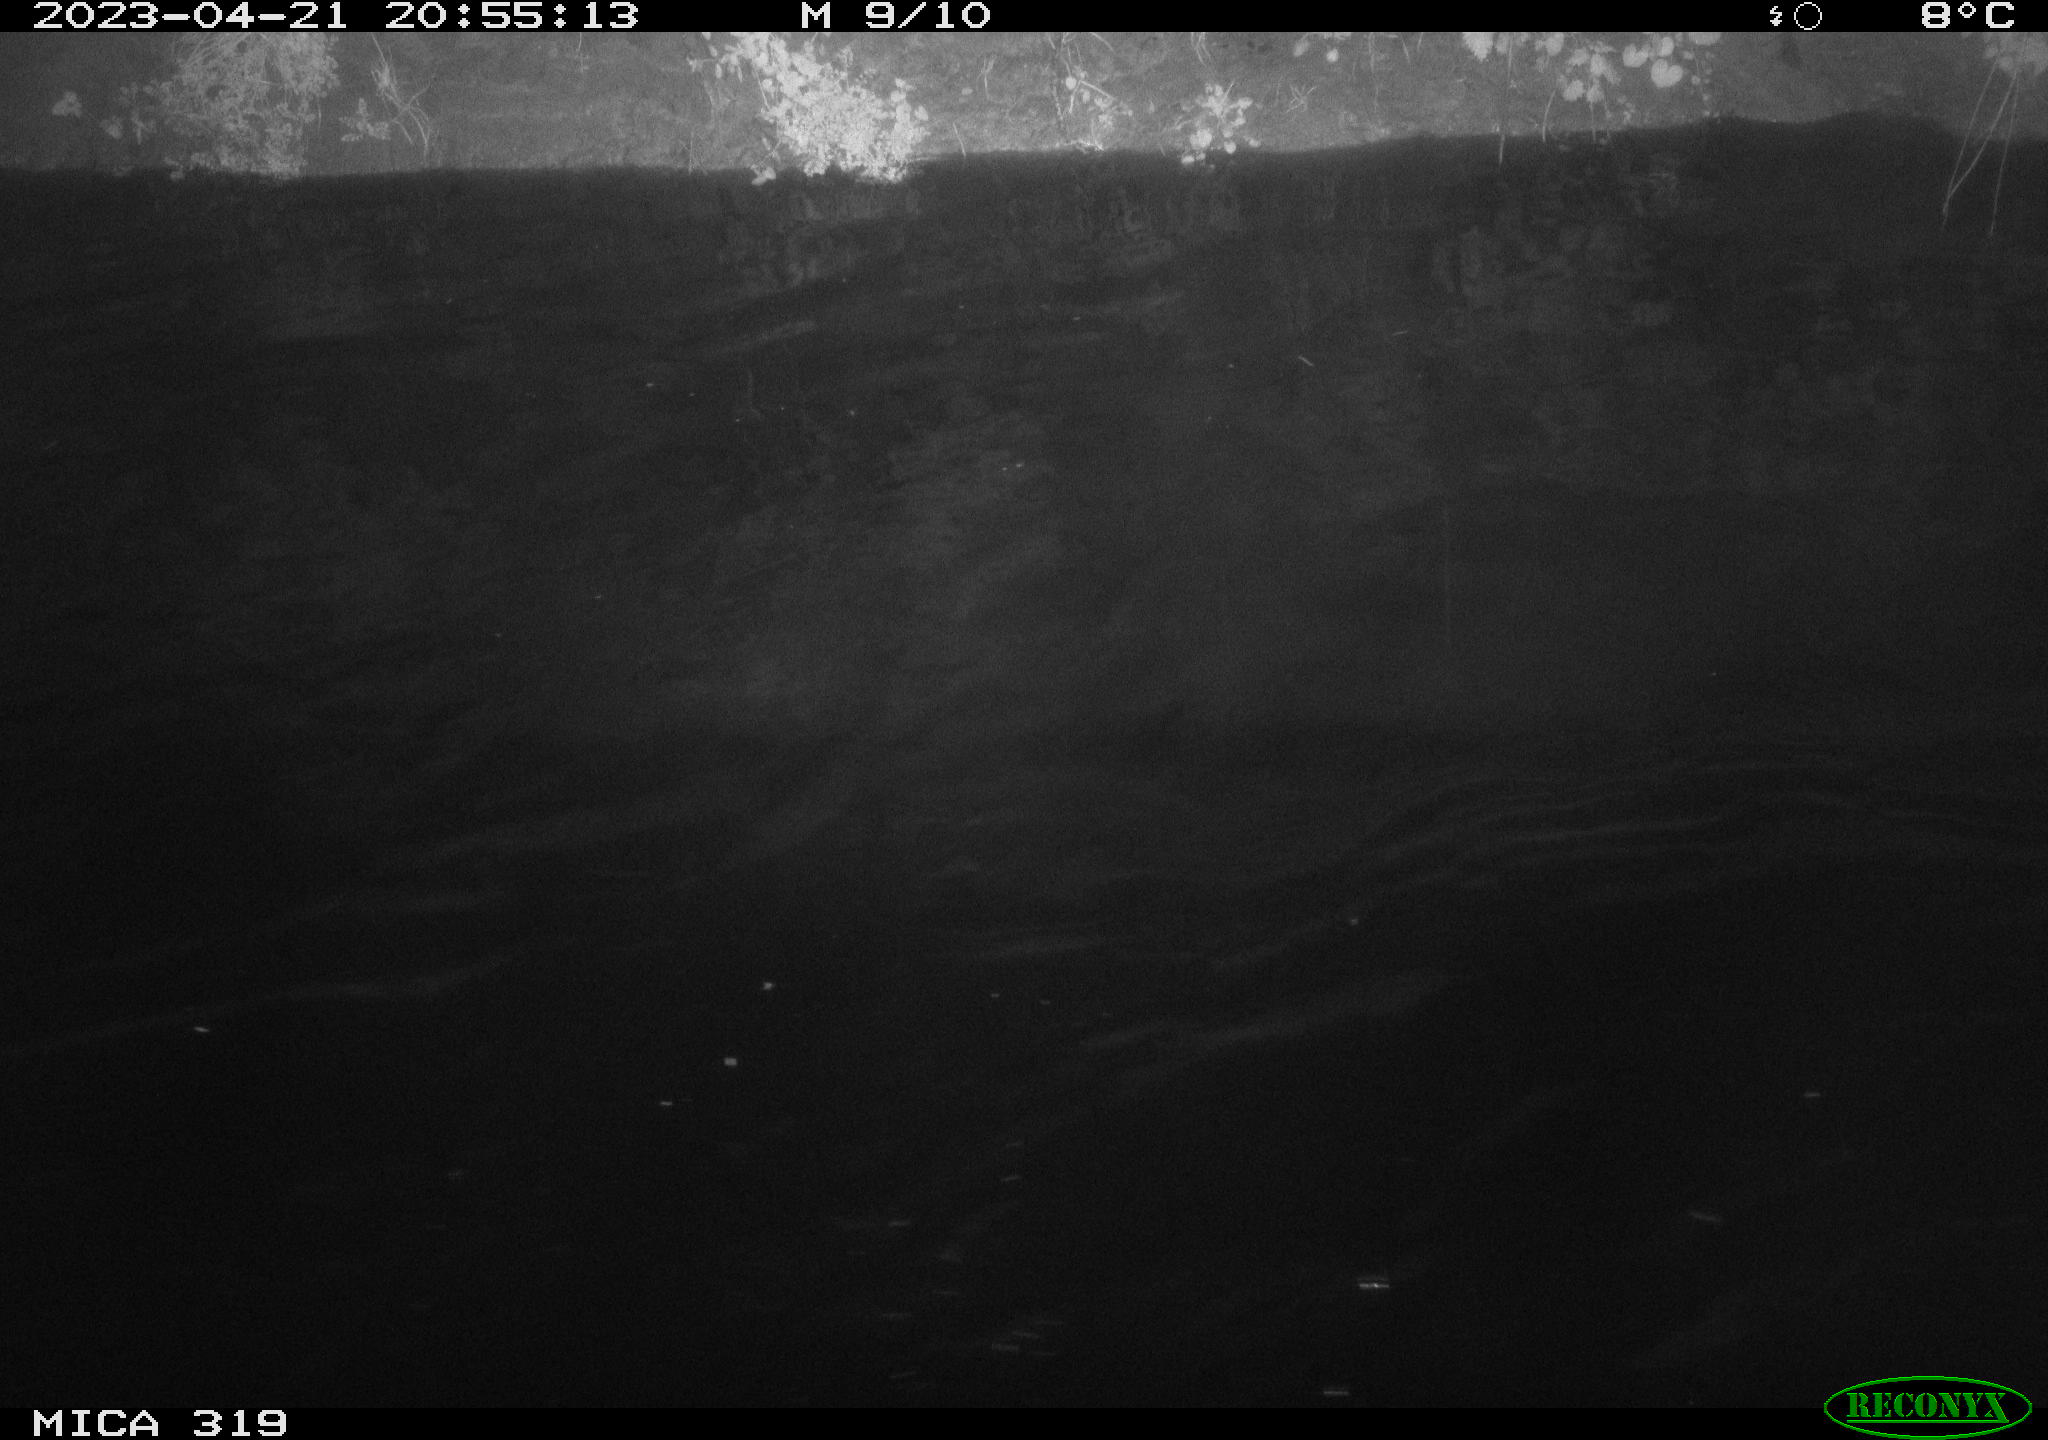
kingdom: Animalia
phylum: Chordata
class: Aves
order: Anseriformes
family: Anatidae
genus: Anas
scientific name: Anas
